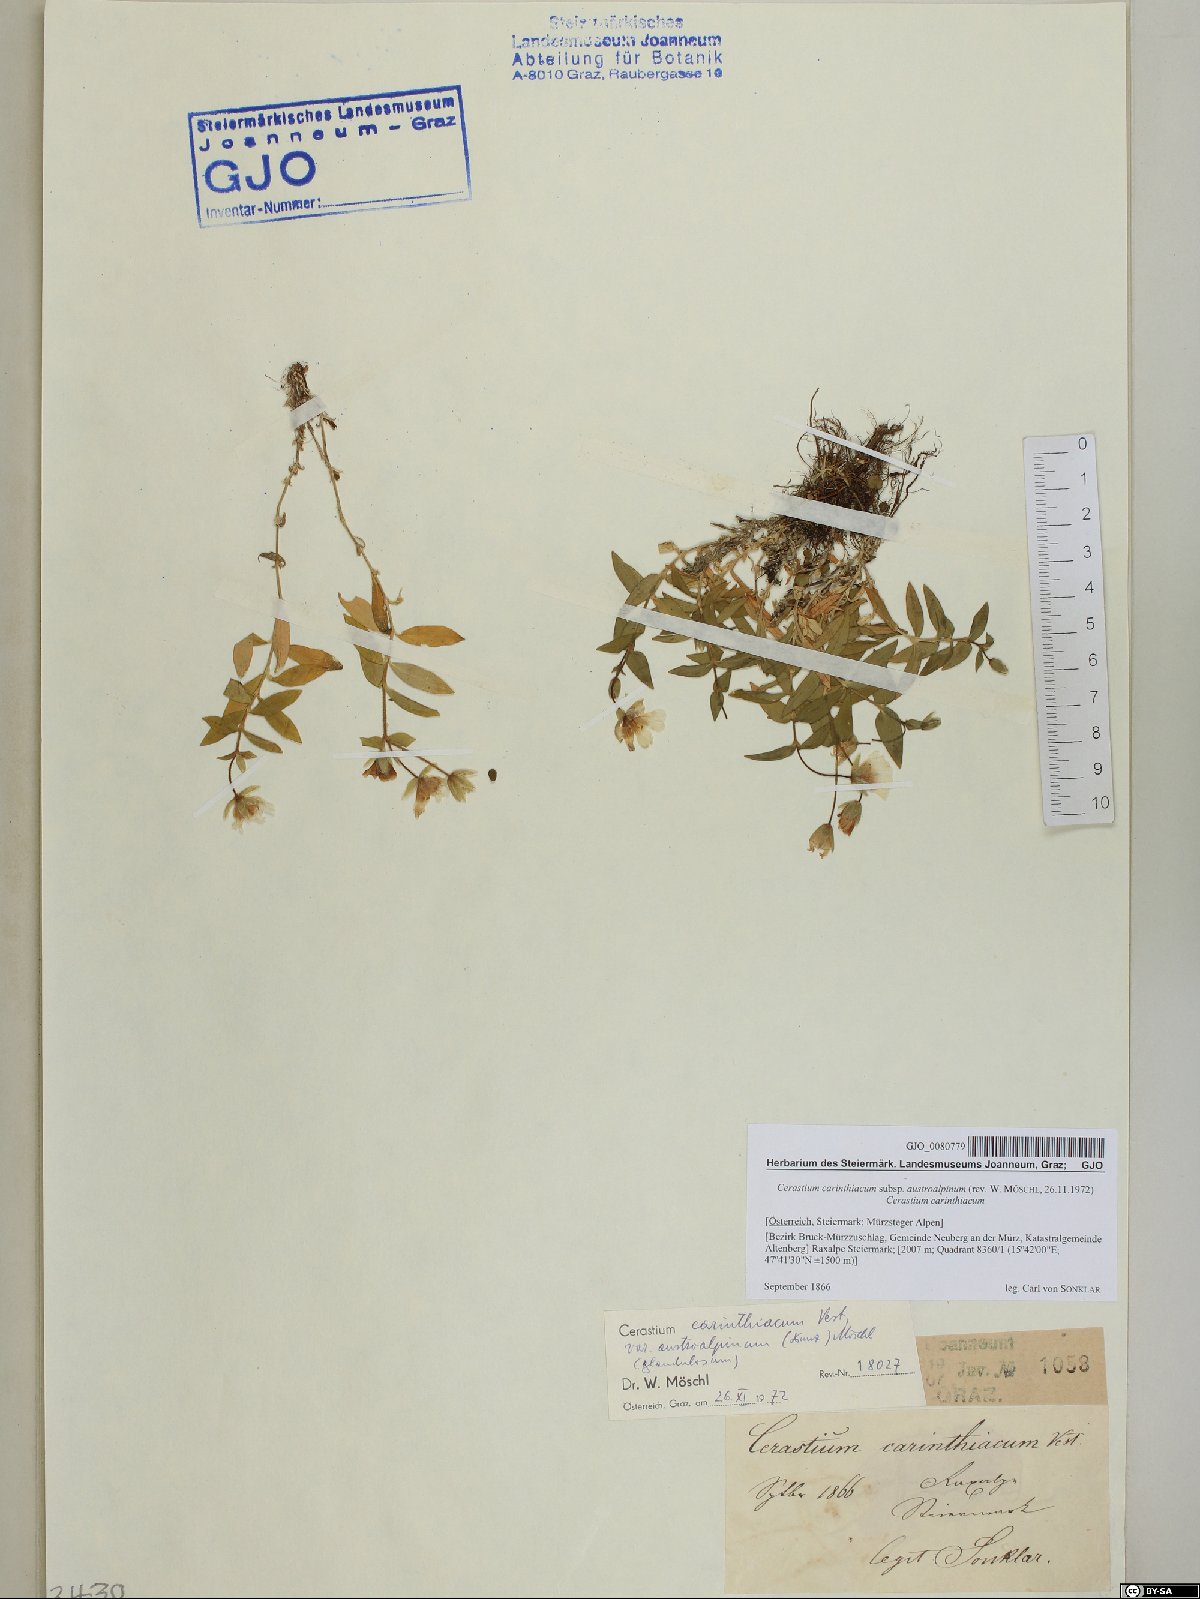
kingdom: Plantae
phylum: Tracheophyta
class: Magnoliopsida
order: Caryophyllales
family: Caryophyllaceae
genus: Cerastium
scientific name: Cerastium carinthiacum
